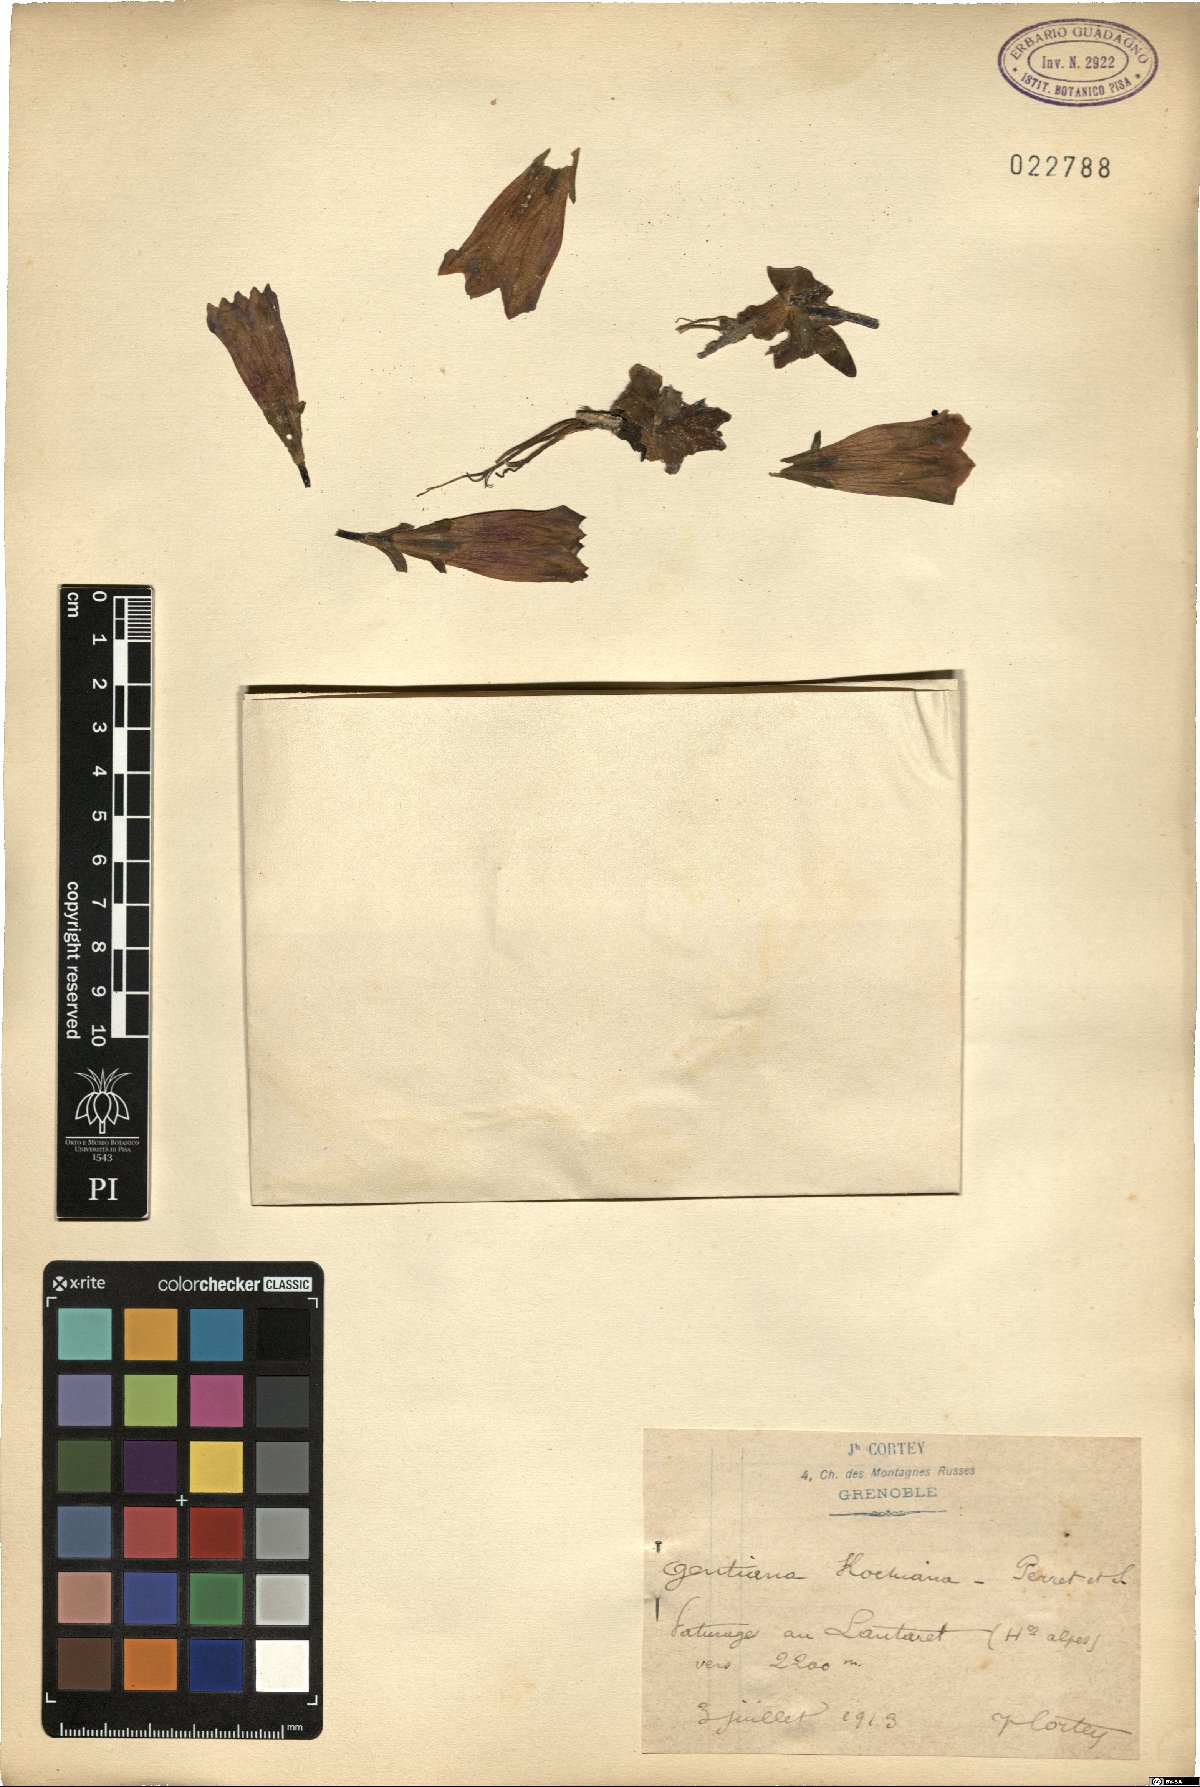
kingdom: Plantae
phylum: Tracheophyta
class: Magnoliopsida
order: Gentianales
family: Gentianaceae
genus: Gentiana
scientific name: Gentiana acaulis
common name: Trumpet gentian
